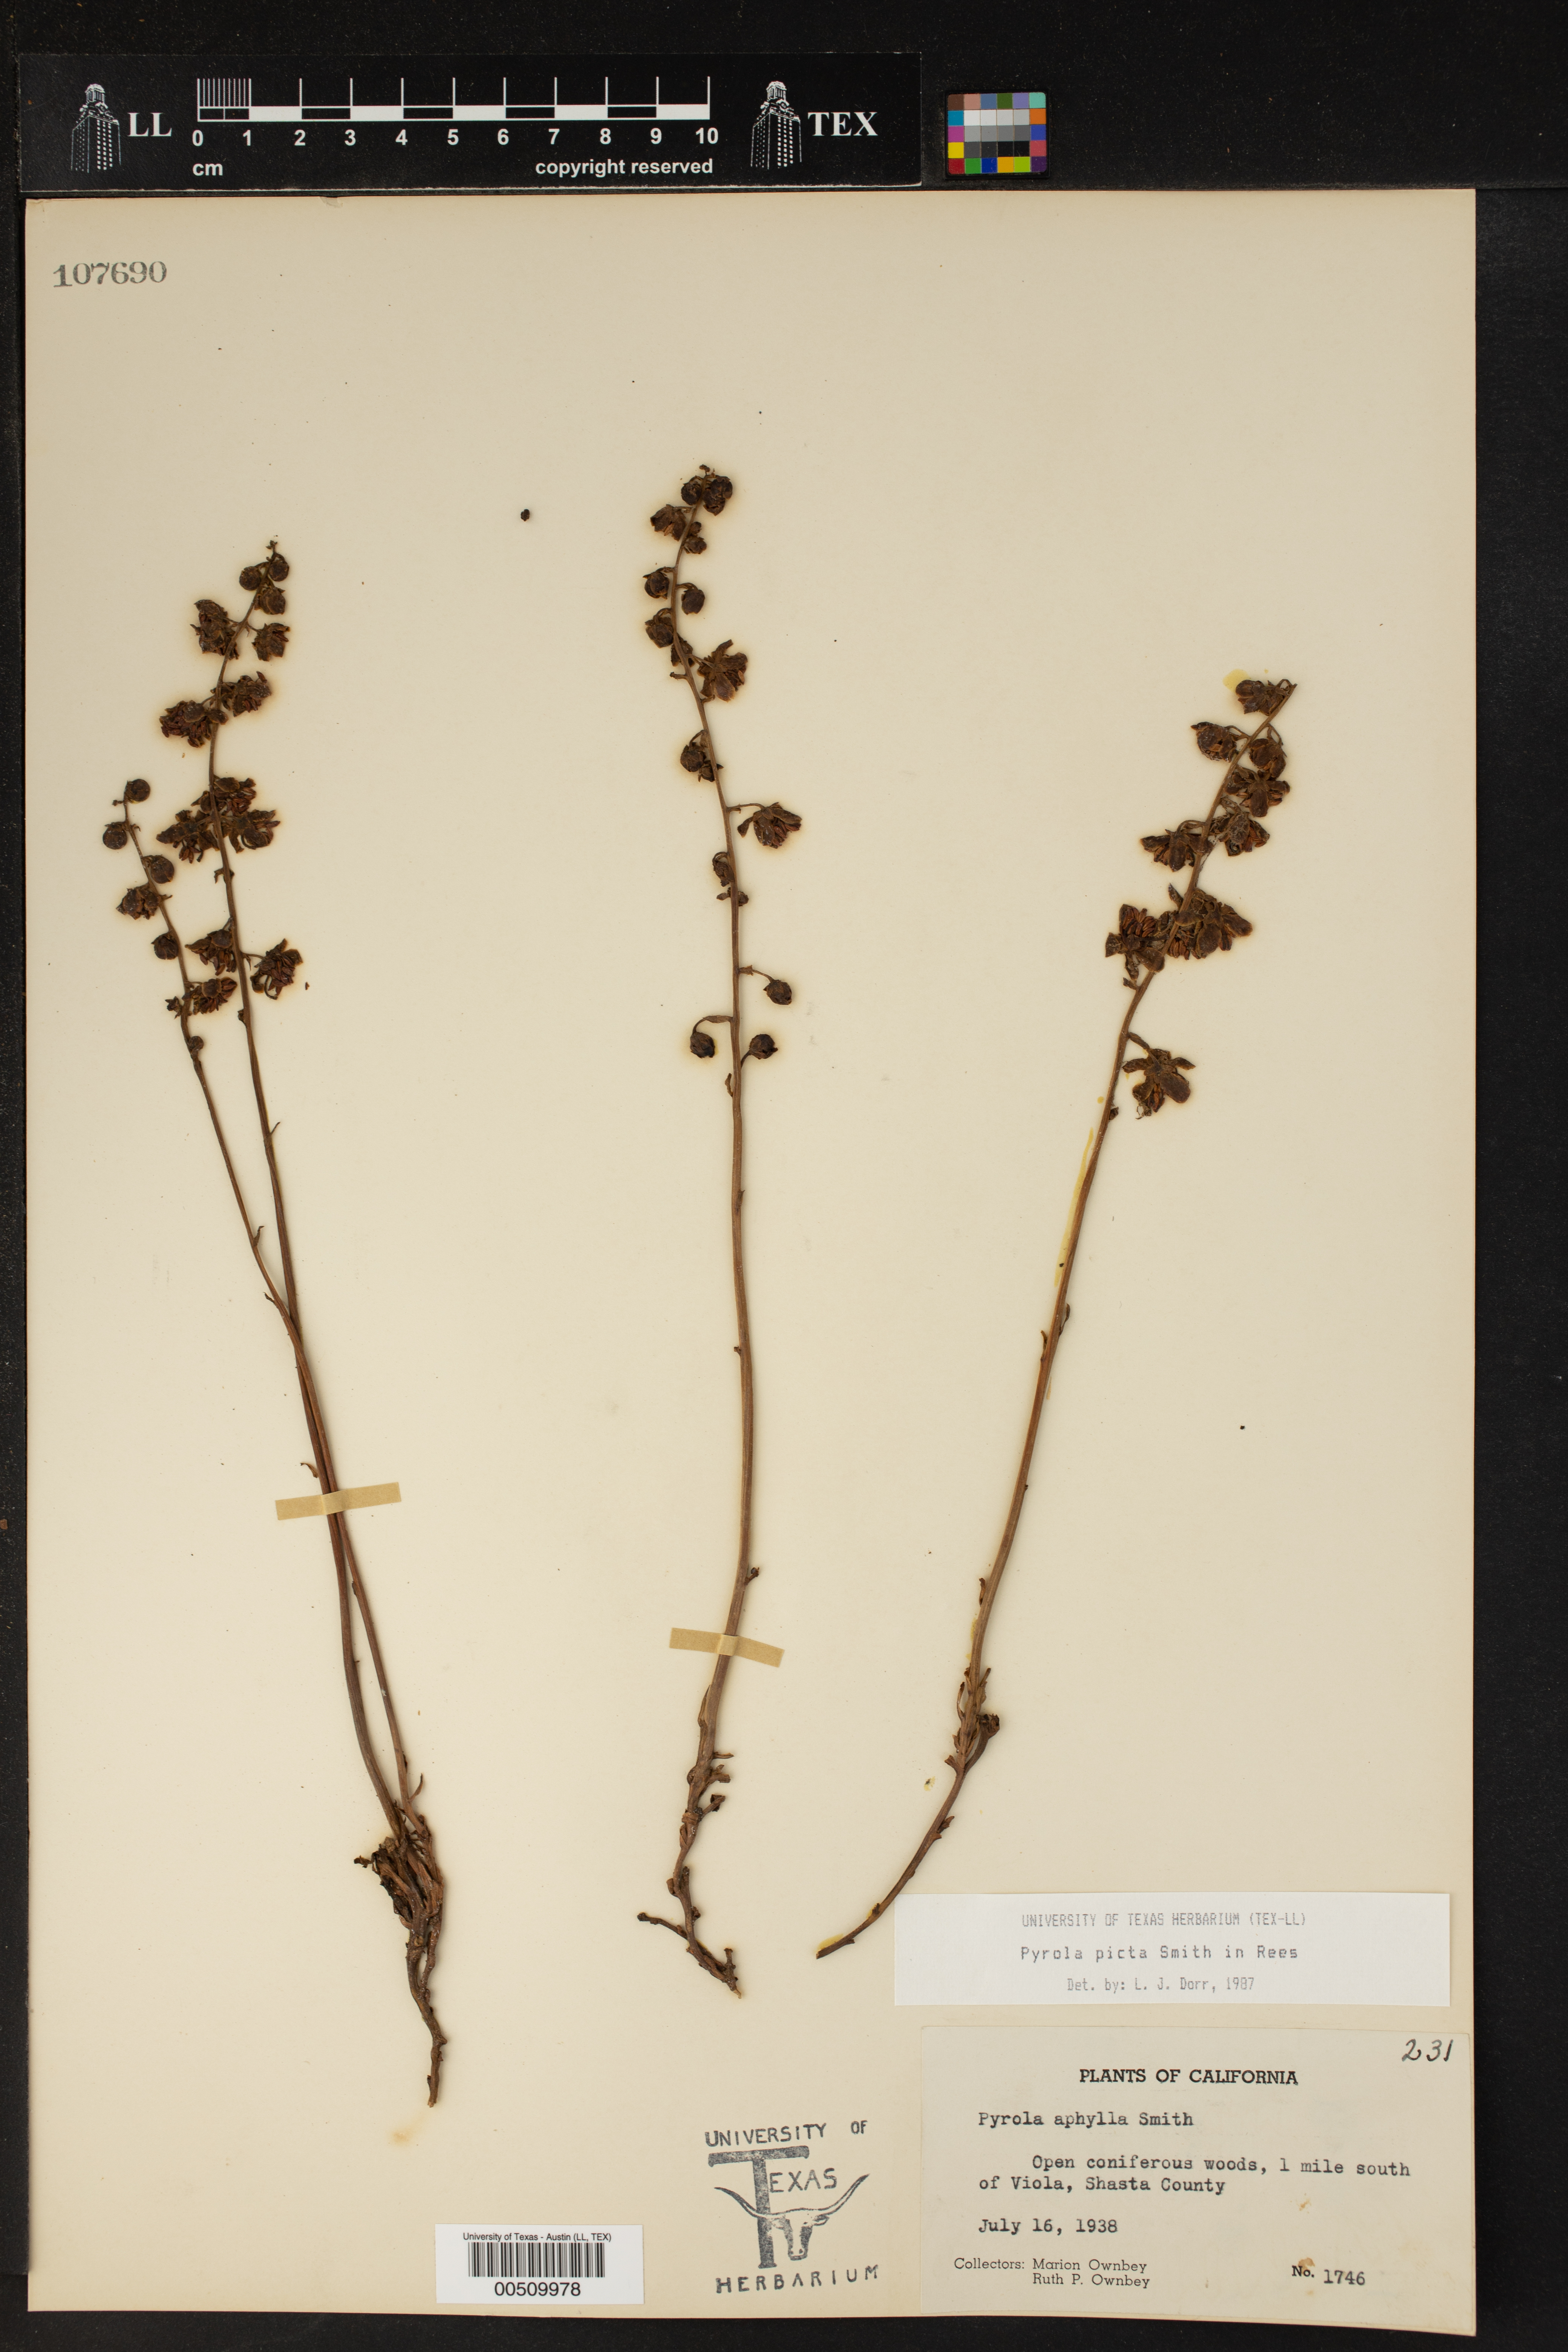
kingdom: Plantae
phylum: Tracheophyta
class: Magnoliopsida
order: Ericales
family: Ericaceae
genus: Pyrola
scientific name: Pyrola picta
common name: White-vein wintergreen
